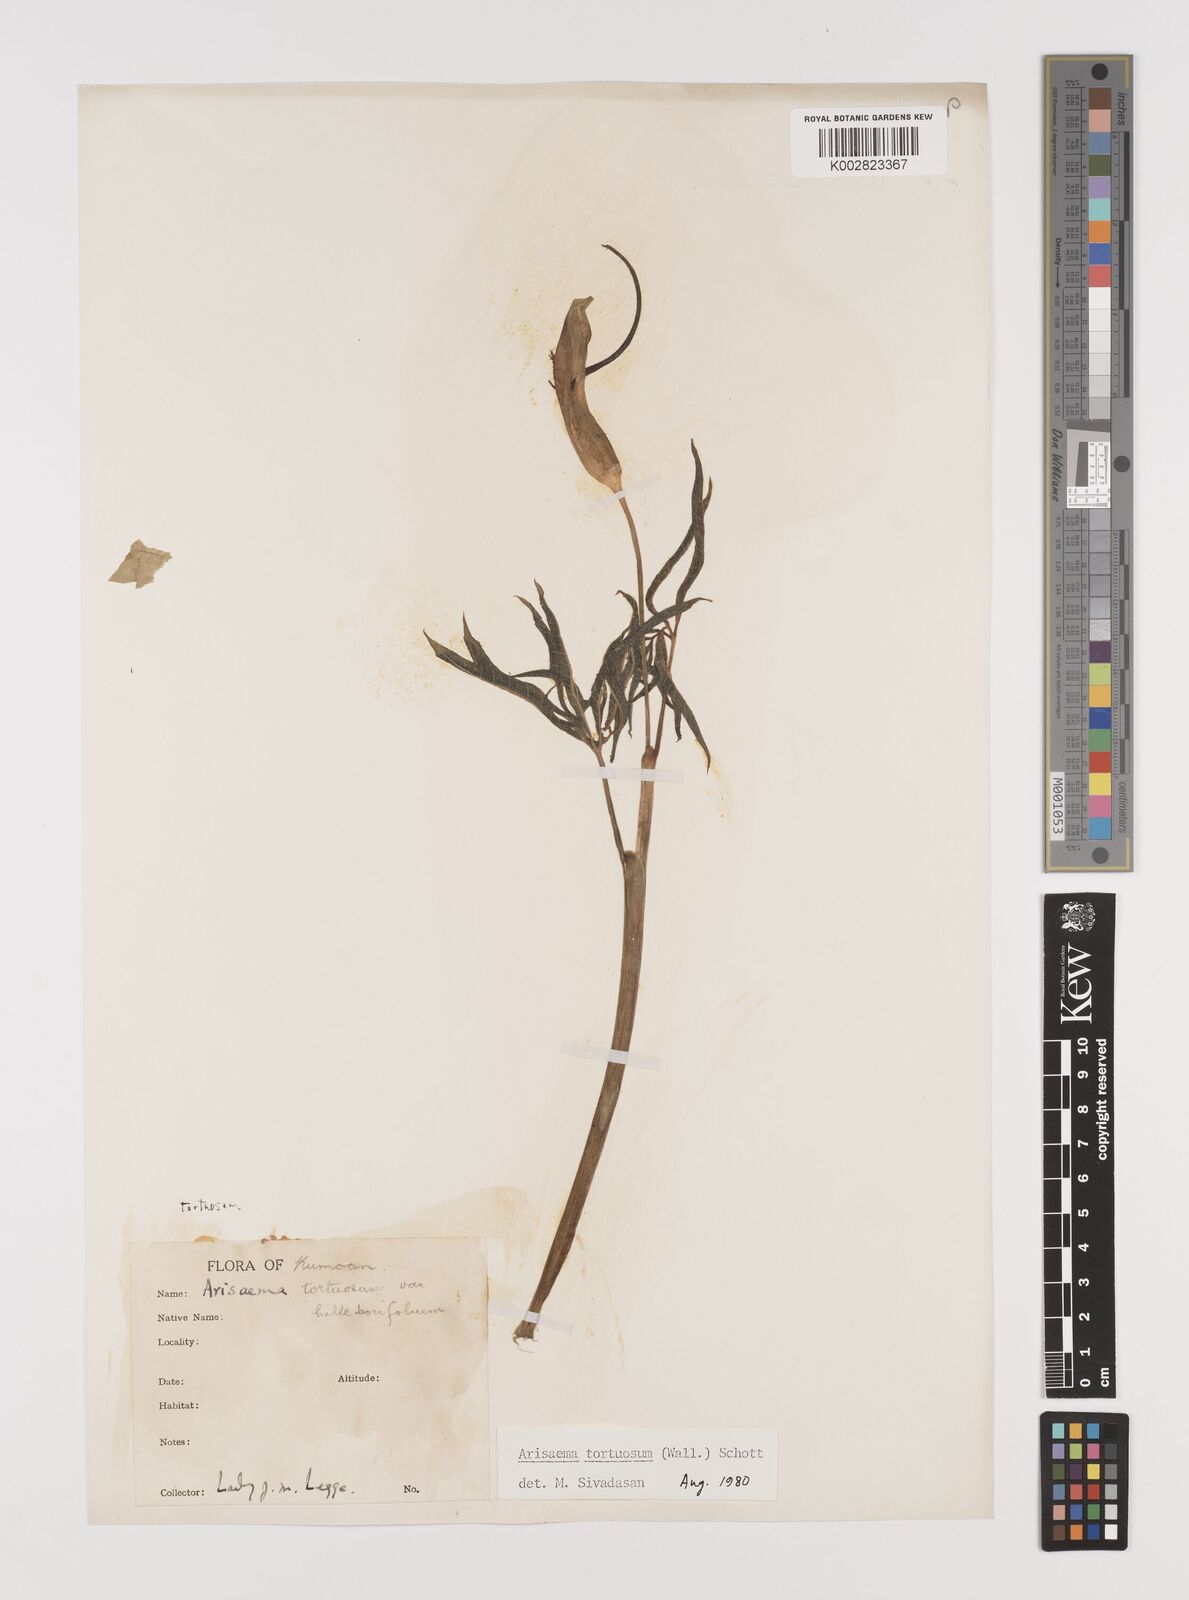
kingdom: Plantae
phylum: Tracheophyta
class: Liliopsida
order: Alismatales
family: Araceae
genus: Arisaema
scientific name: Arisaema tortuosum
